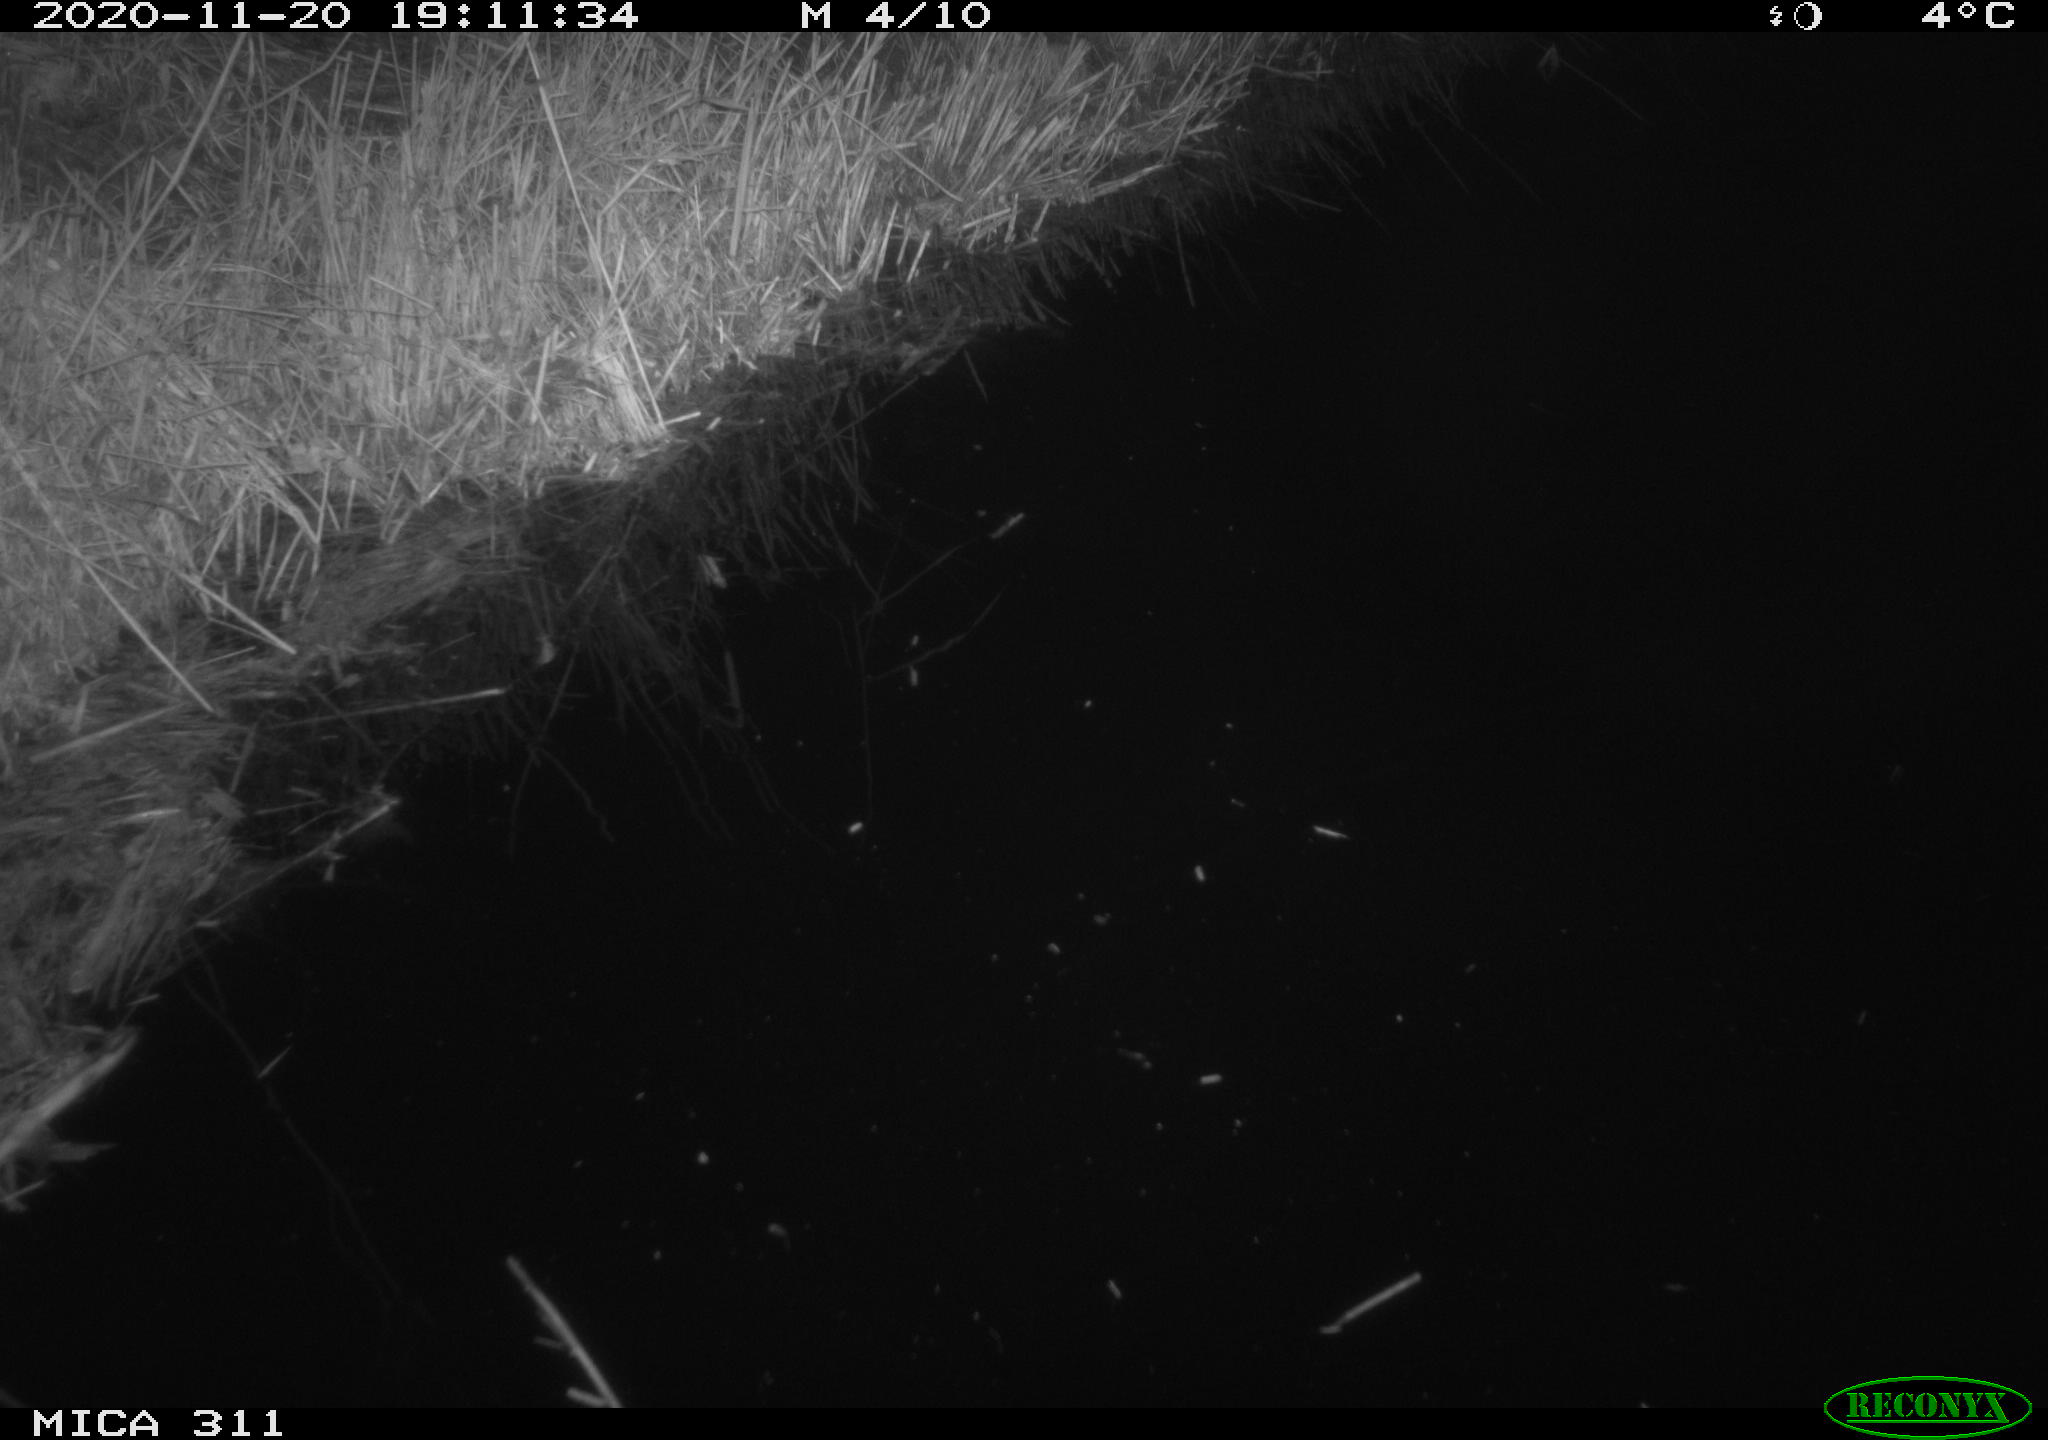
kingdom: Animalia
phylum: Chordata
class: Mammalia
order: Rodentia
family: Muridae
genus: Rattus
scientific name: Rattus norvegicus
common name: Brown rat
